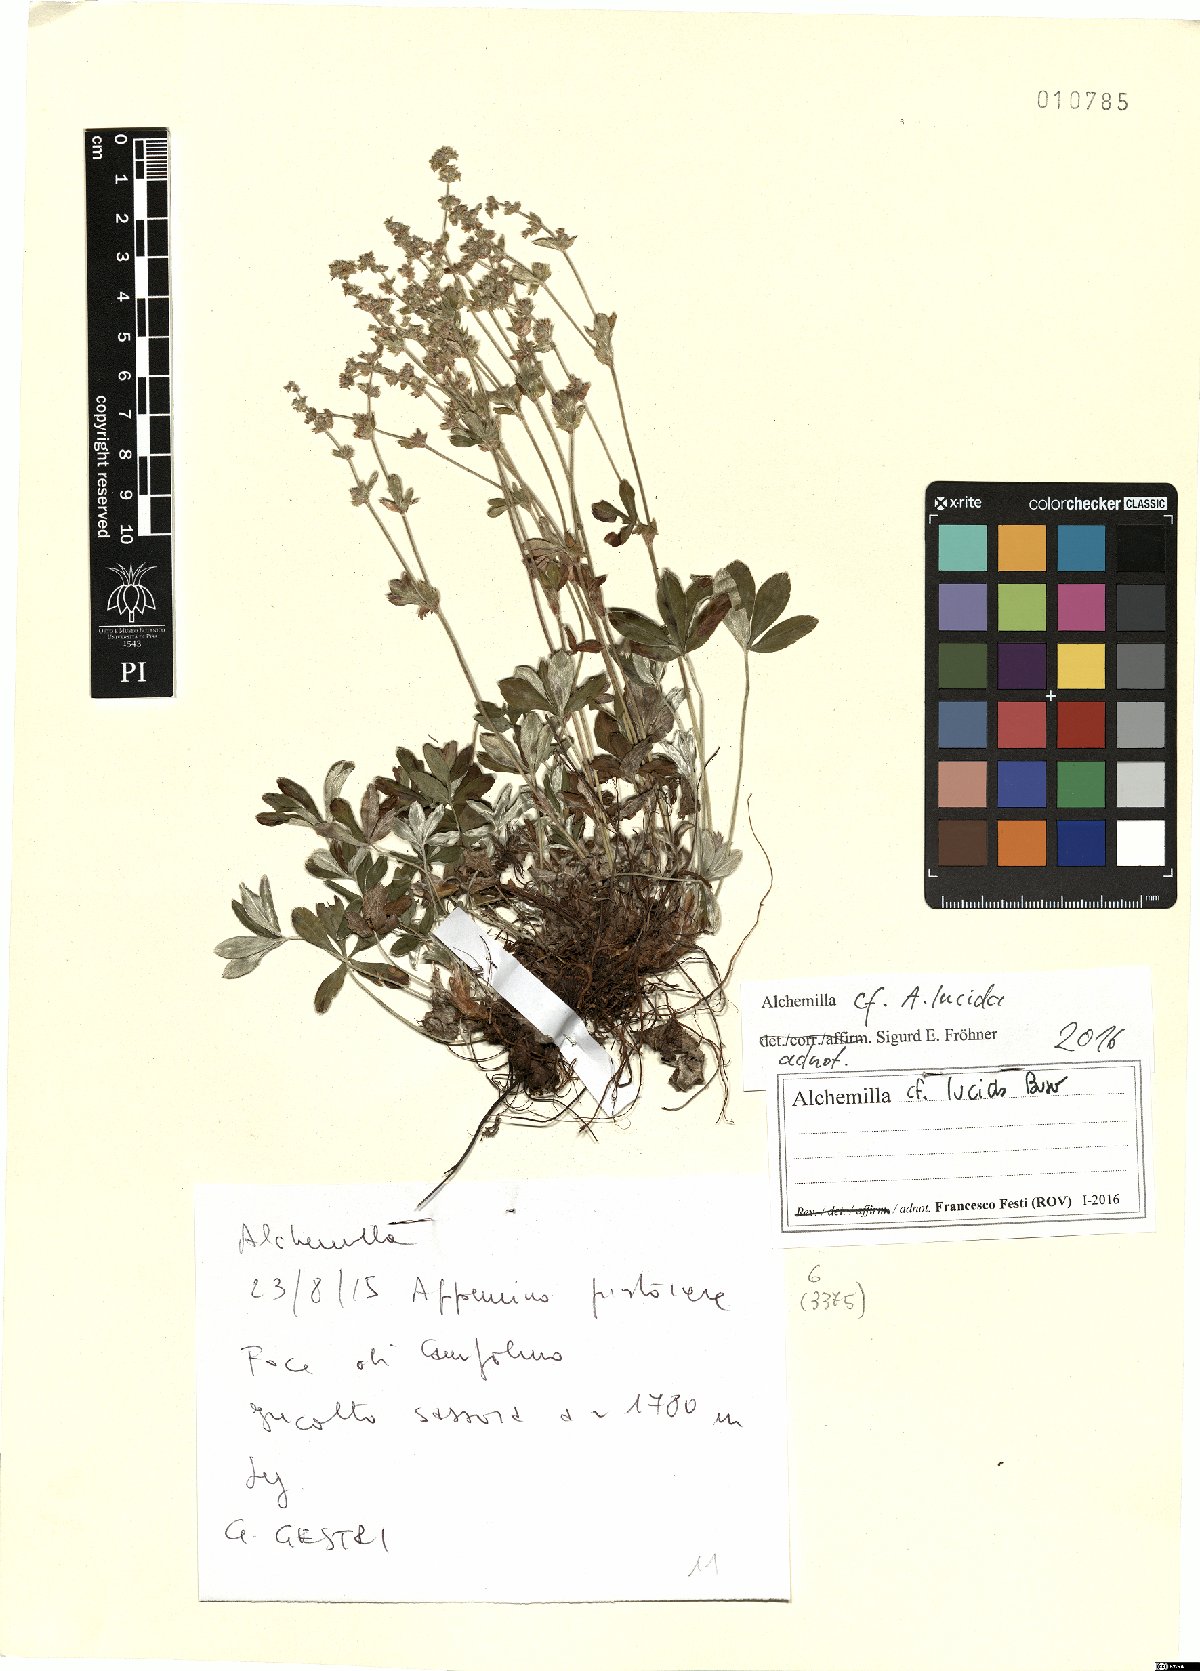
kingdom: Plantae
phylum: Tracheophyta
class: Magnoliopsida
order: Rosales
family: Rosaceae
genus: Alchemilla
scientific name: Alchemilla lucida
